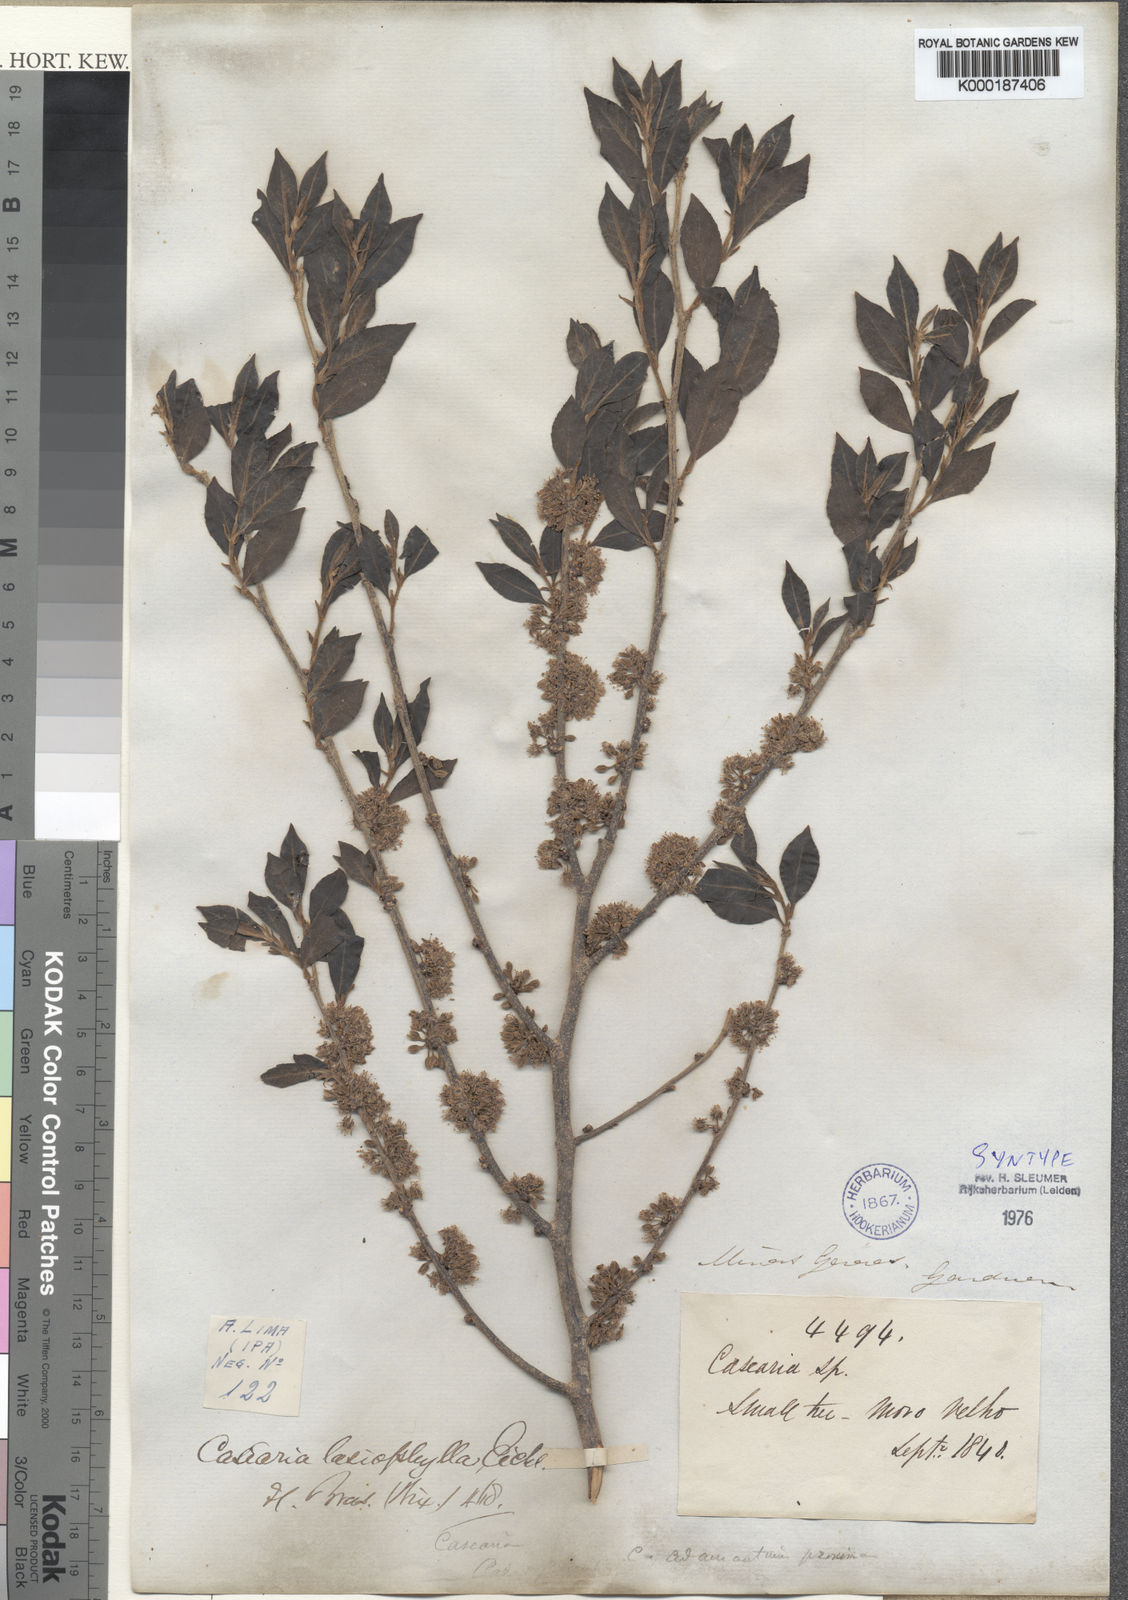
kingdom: Plantae
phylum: Tracheophyta
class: Magnoliopsida
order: Malpighiales
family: Salicaceae
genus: Casearia
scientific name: Casearia decandra
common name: Crack open
